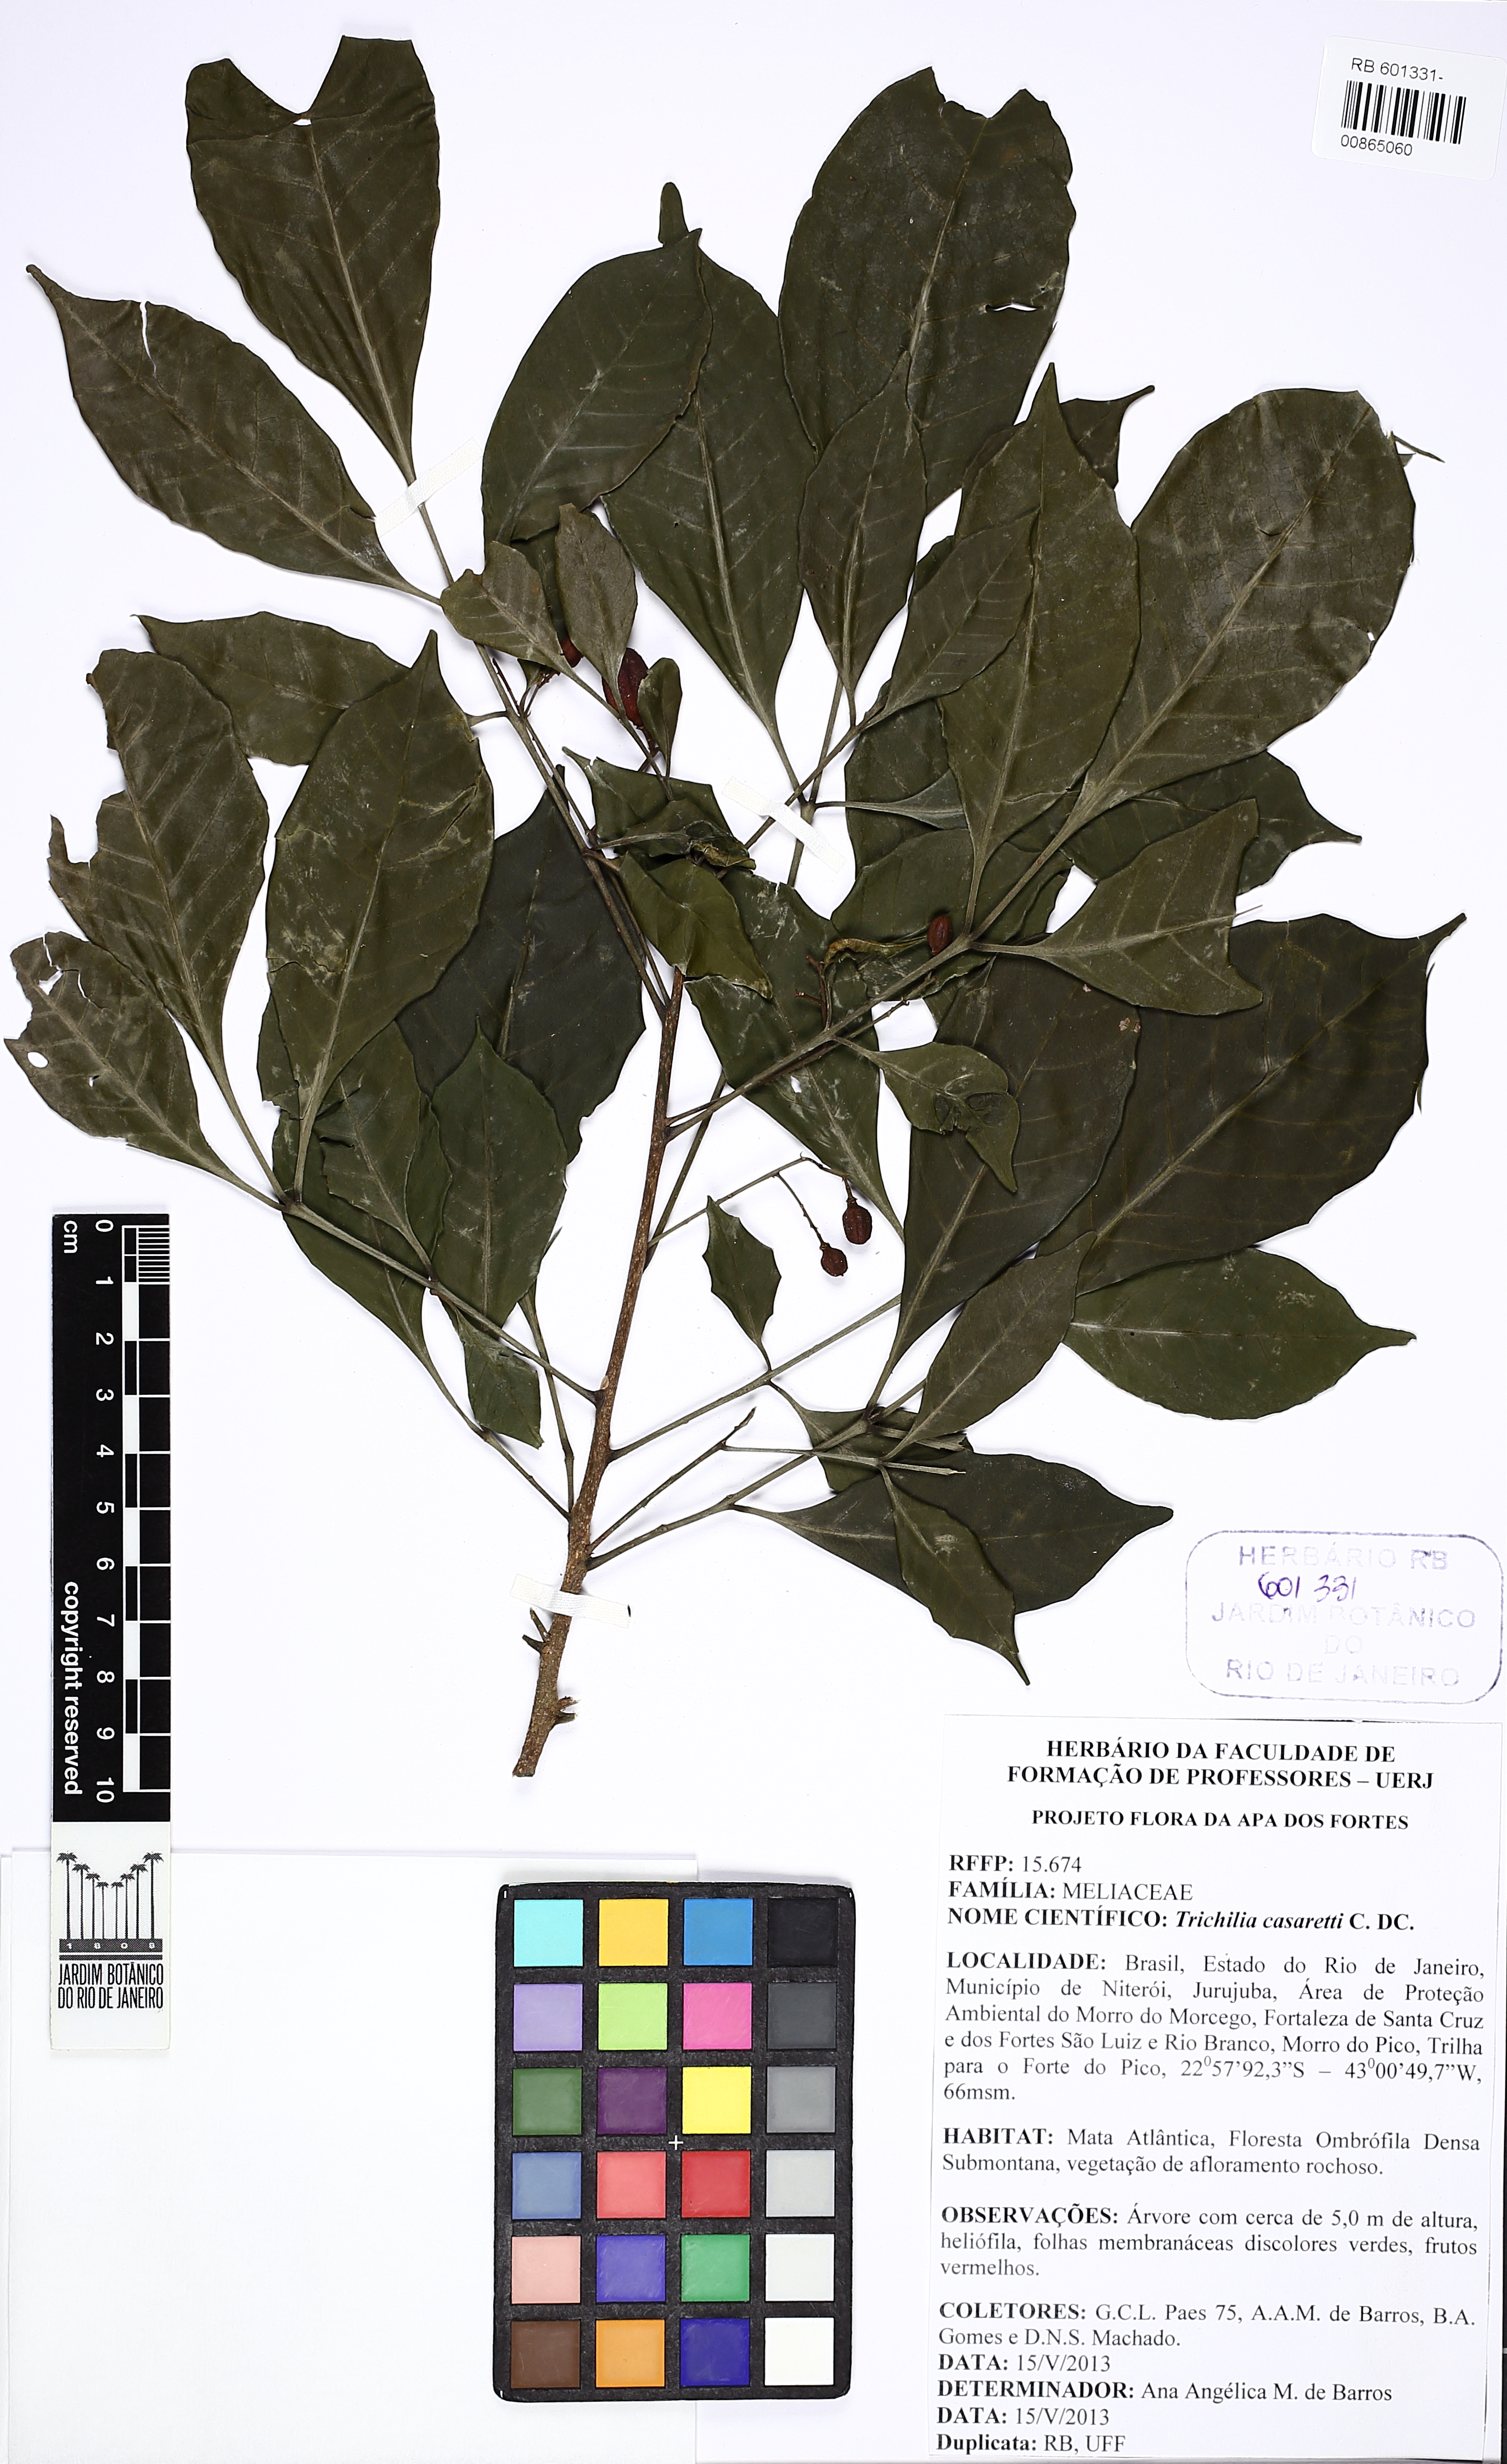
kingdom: Plantae
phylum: Tracheophyta
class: Magnoliopsida
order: Sapindales
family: Meliaceae
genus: Trichilia
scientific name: Trichilia casaretti
